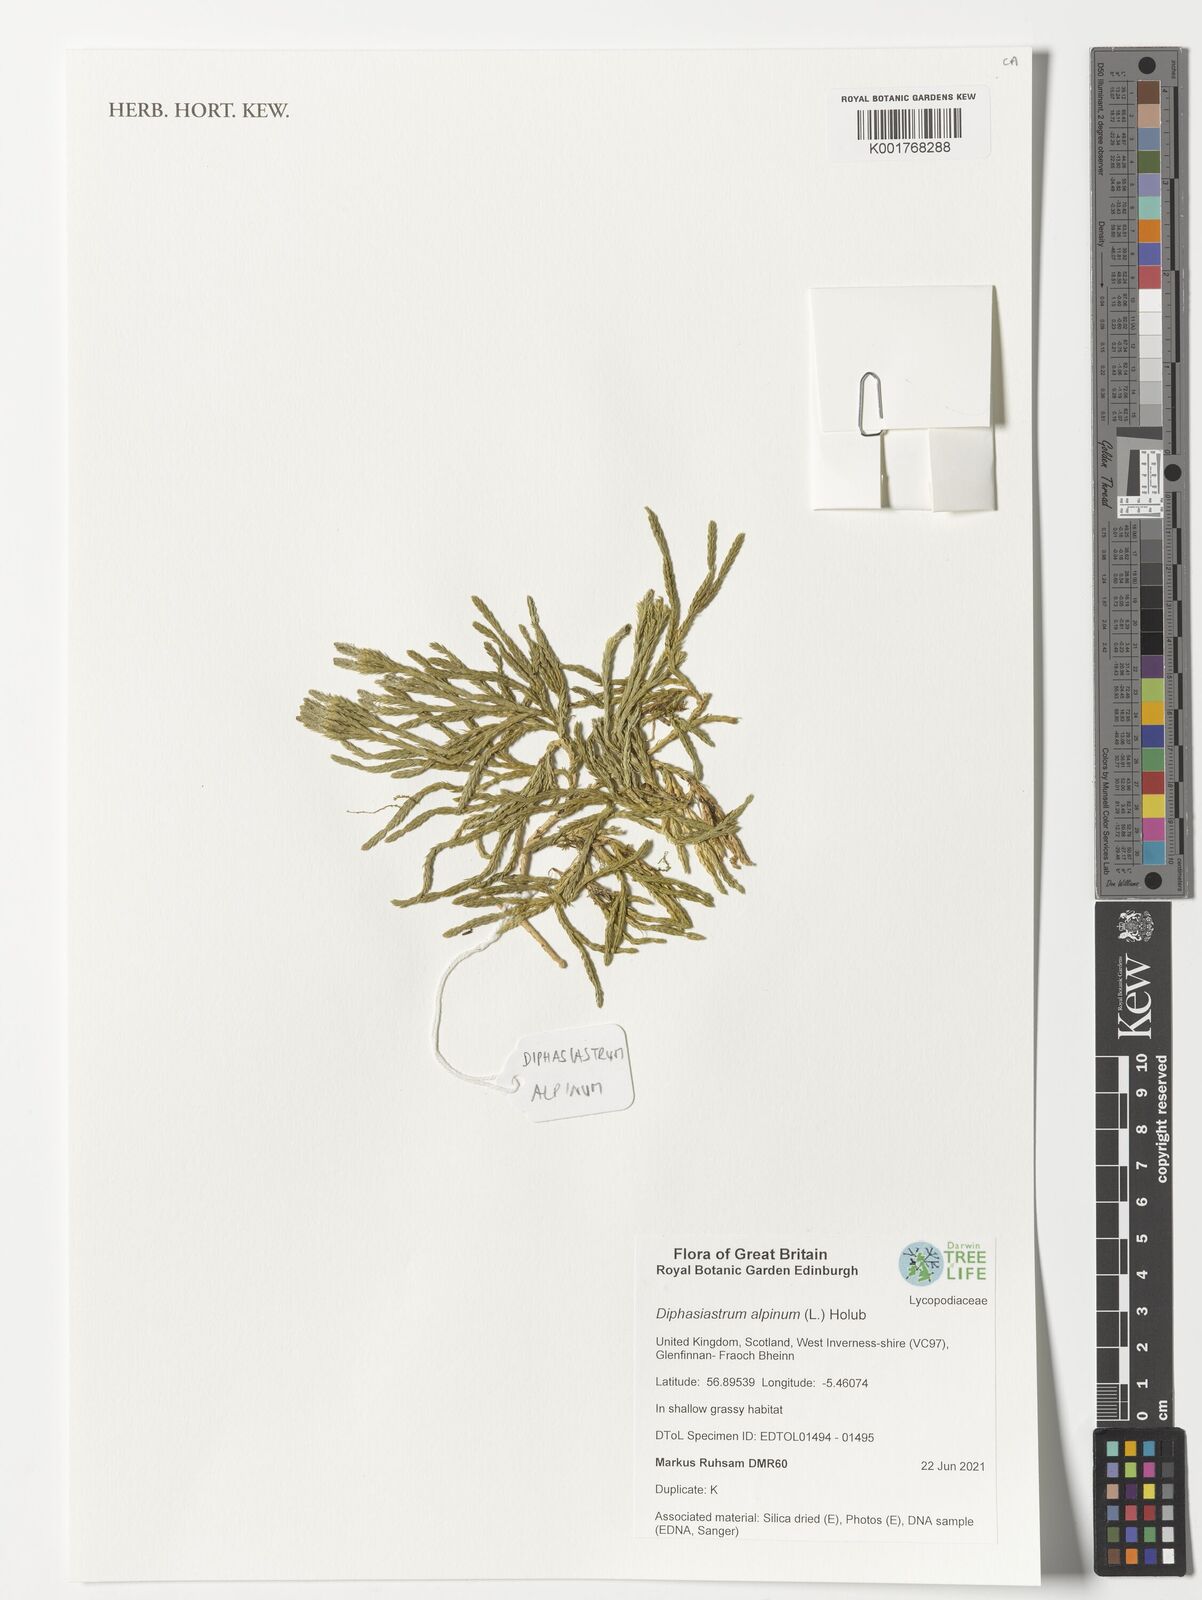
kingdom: Plantae
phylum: Tracheophyta
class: Lycopodiopsida
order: Lycopodiales
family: Lycopodiaceae
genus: Diphasiastrum
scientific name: Diphasiastrum alpinum
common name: Alpine clubmoss
